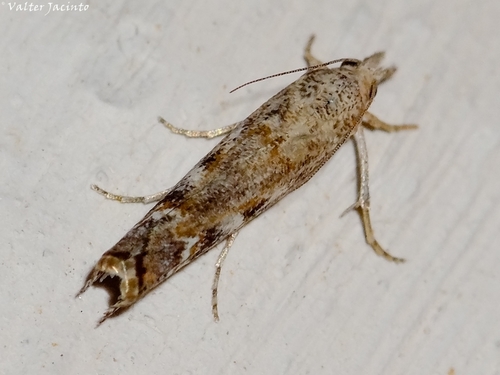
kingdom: Animalia
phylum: Arthropoda
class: Insecta
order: Lepidoptera
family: Crambidae
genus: Agriphila
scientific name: Agriphila cyrenaicellus
